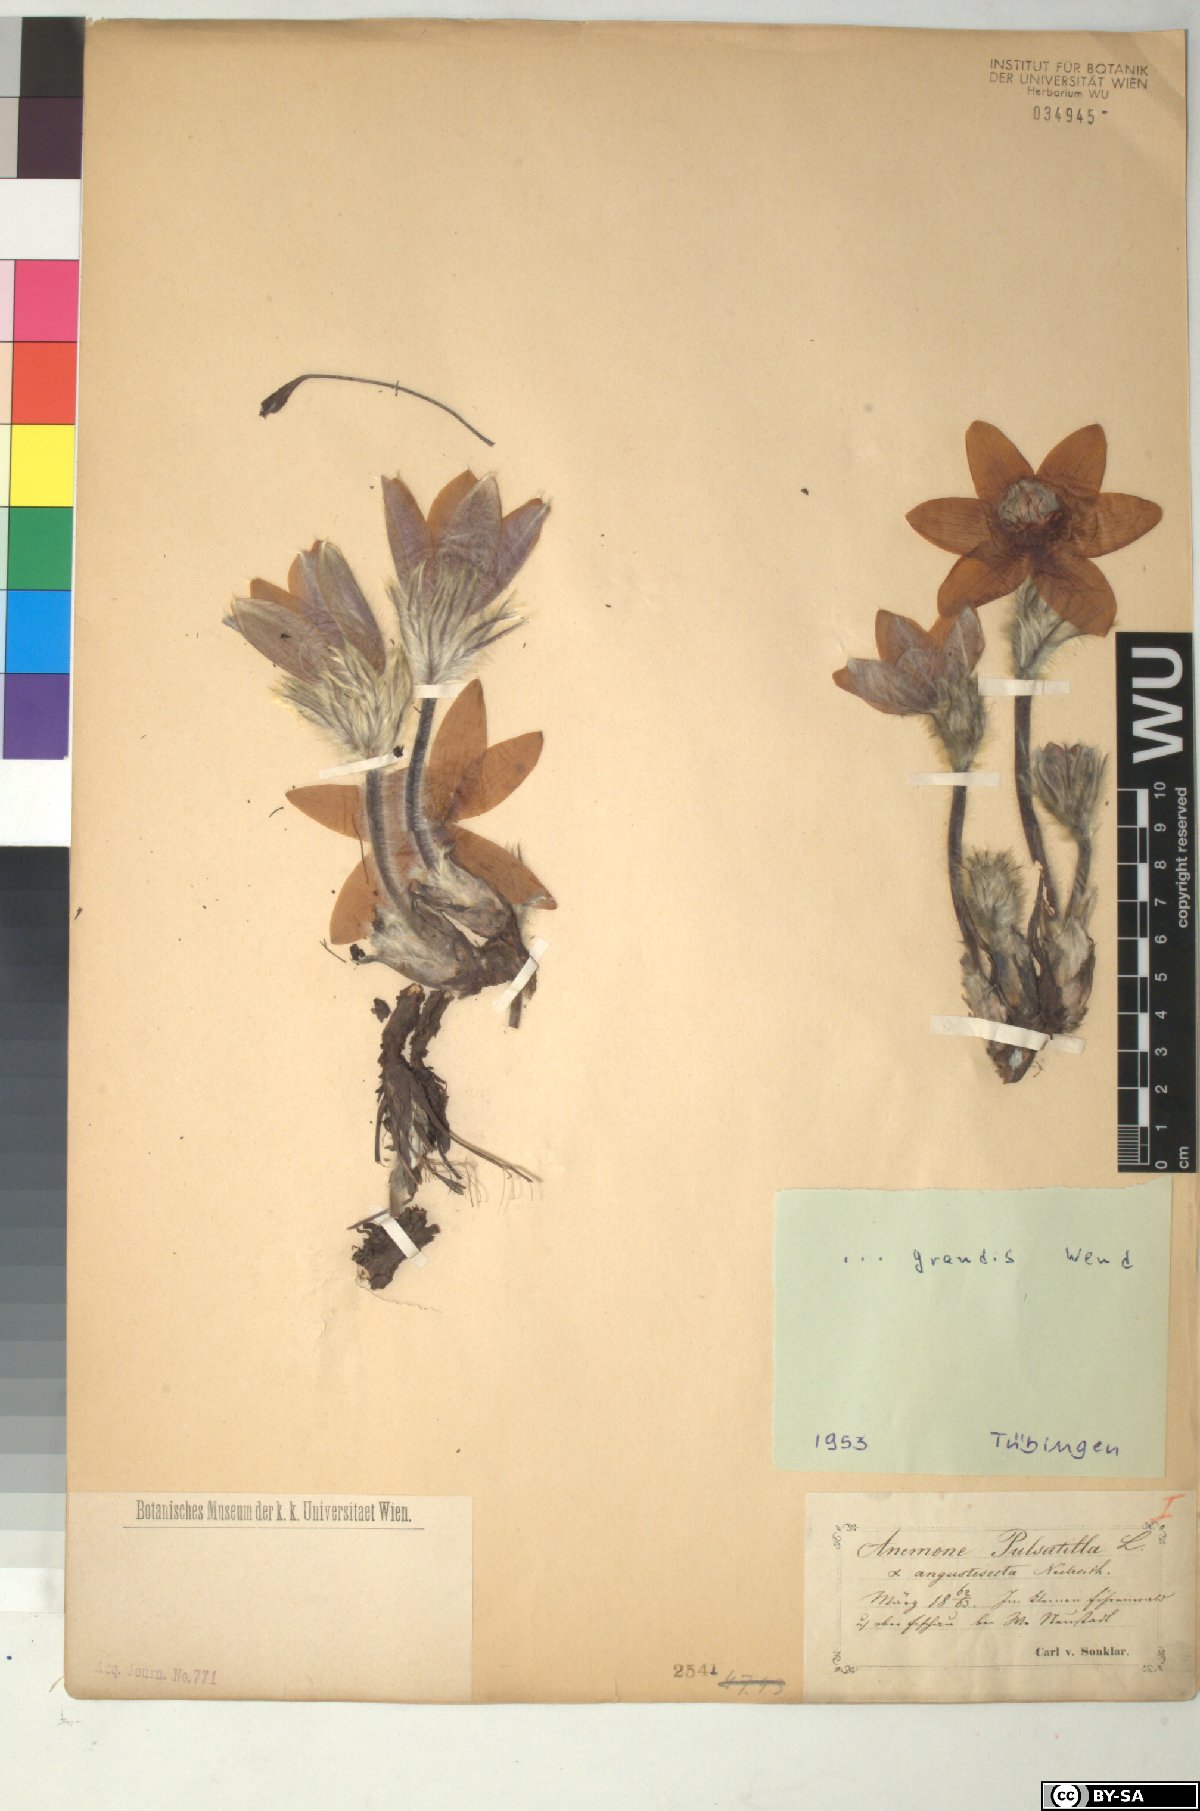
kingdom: Plantae
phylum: Tracheophyta
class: Magnoliopsida
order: Ranunculales
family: Ranunculaceae
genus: Pulsatilla
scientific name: Pulsatilla grandis
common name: Greater pasque flower
